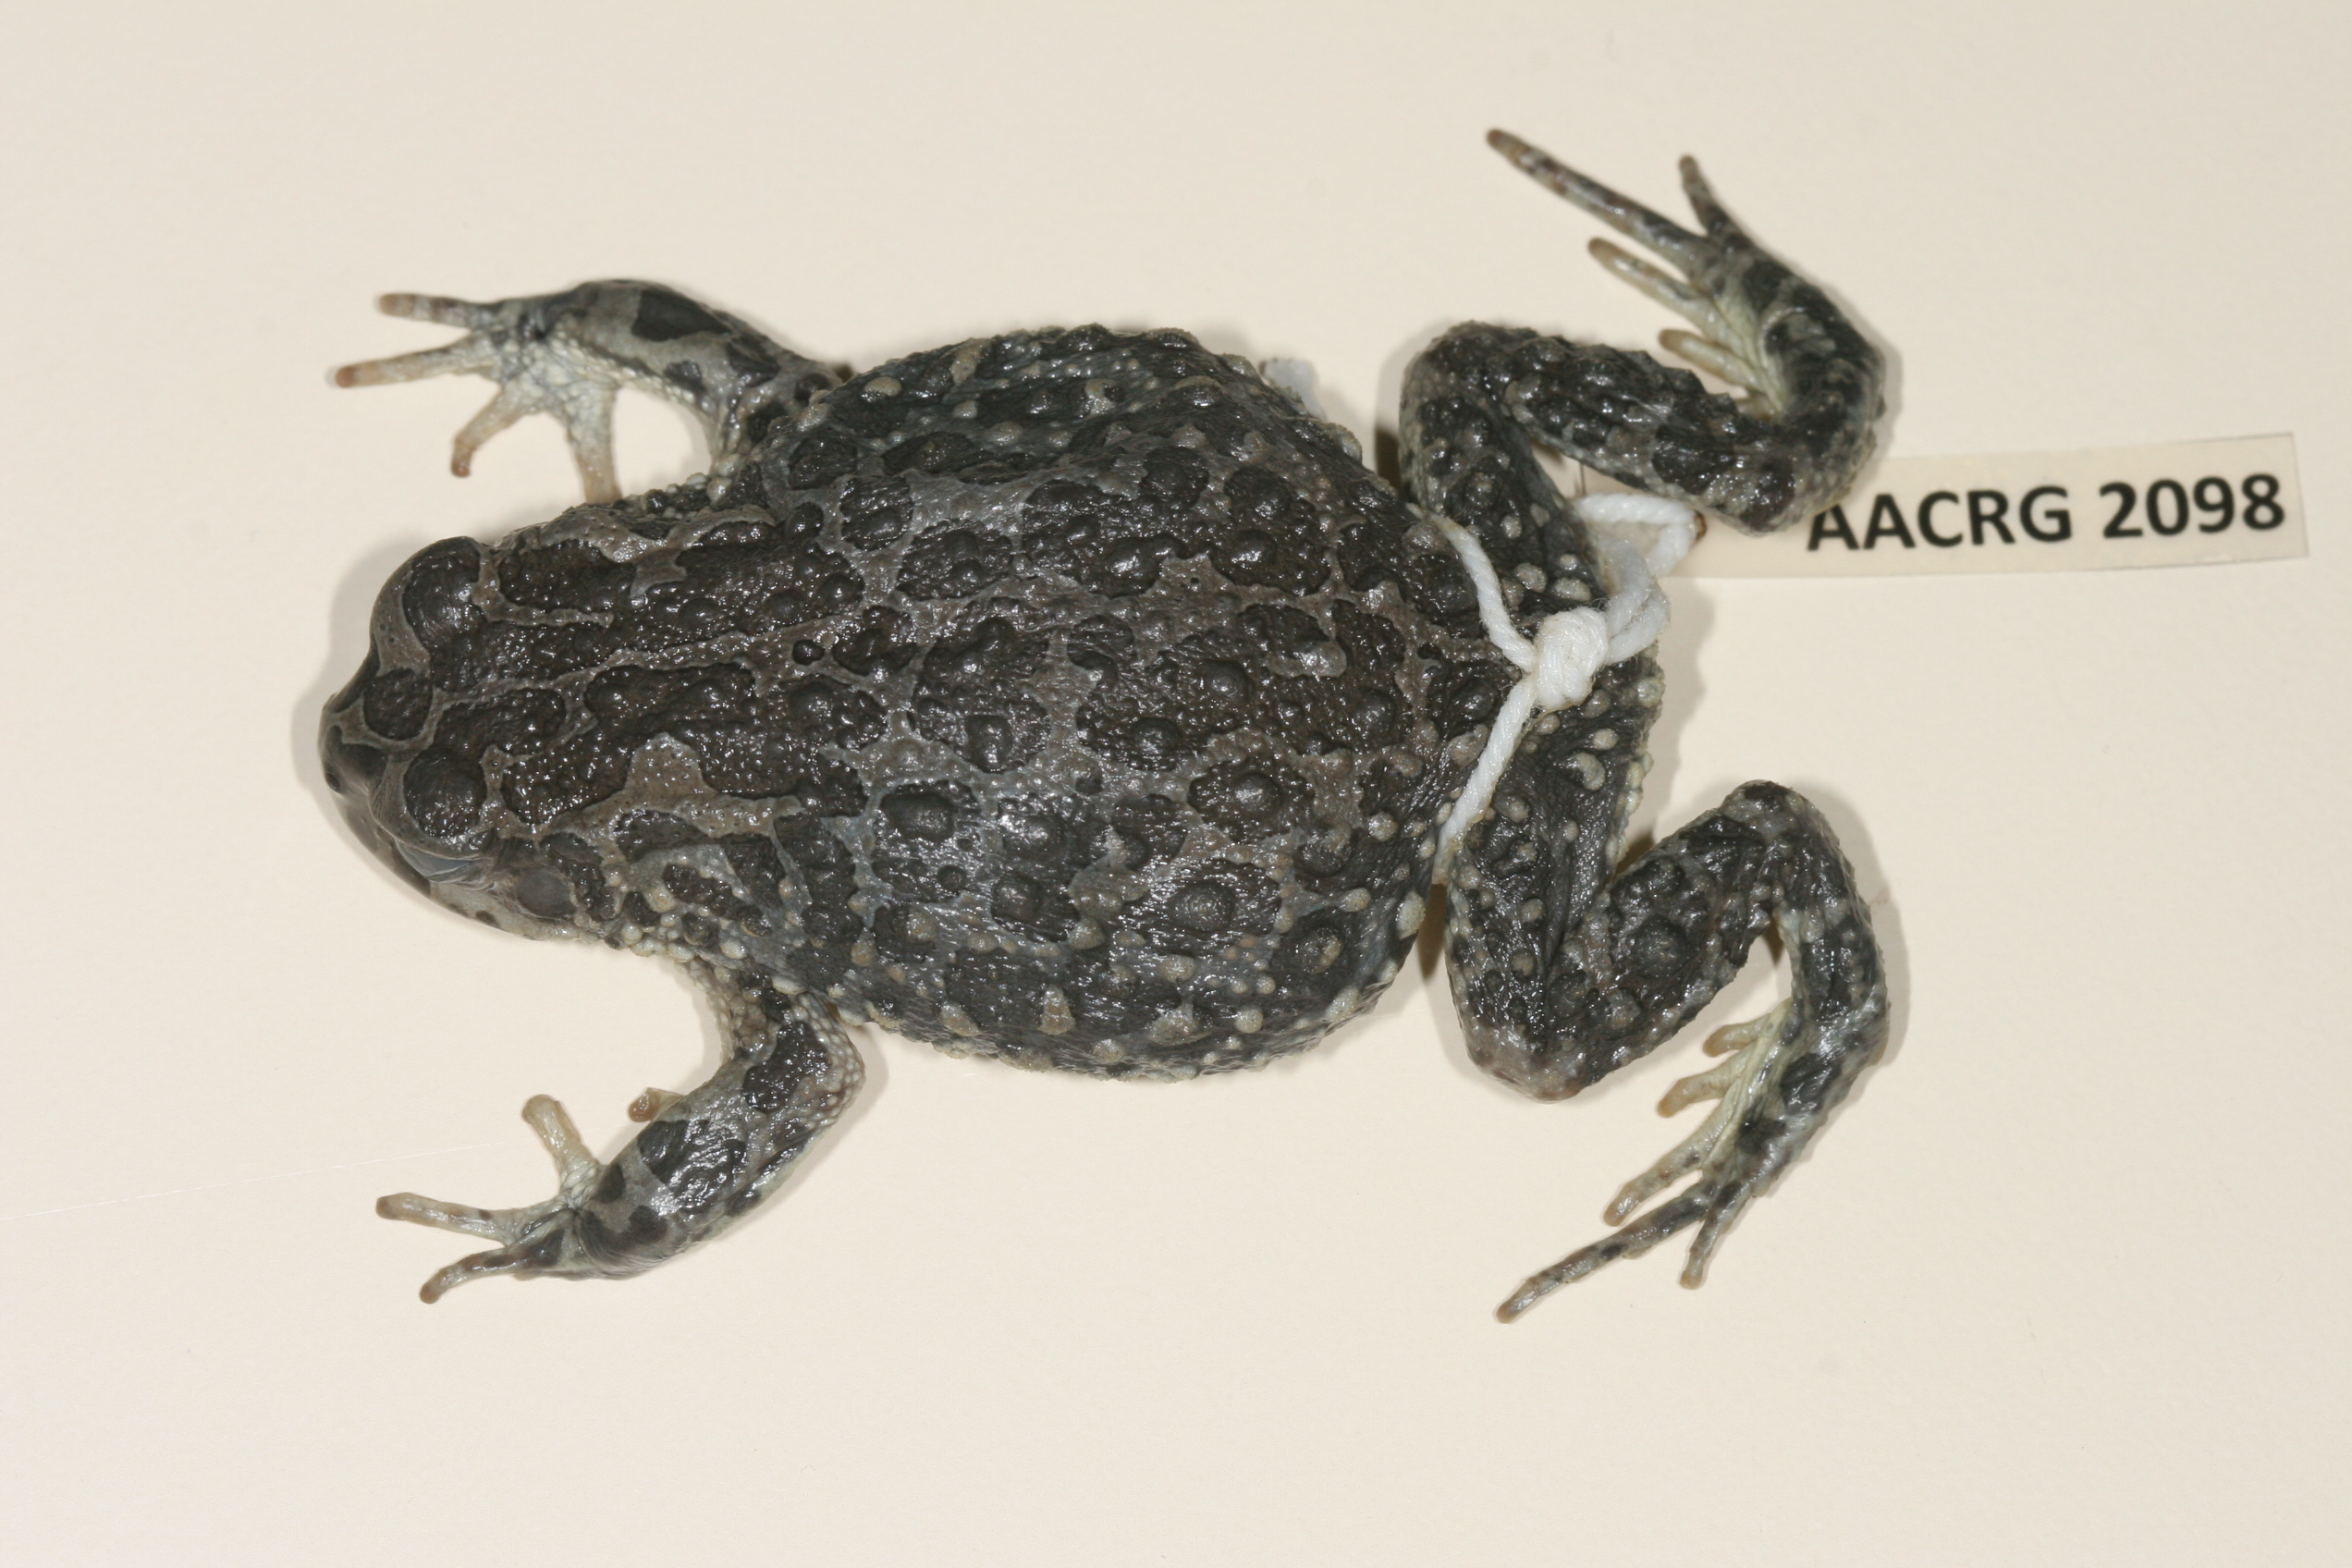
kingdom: Animalia
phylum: Chordata
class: Amphibia
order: Anura
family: Bufonidae
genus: Vandijkophrynus
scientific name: Vandijkophrynus gariepensis
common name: Gariep toad
